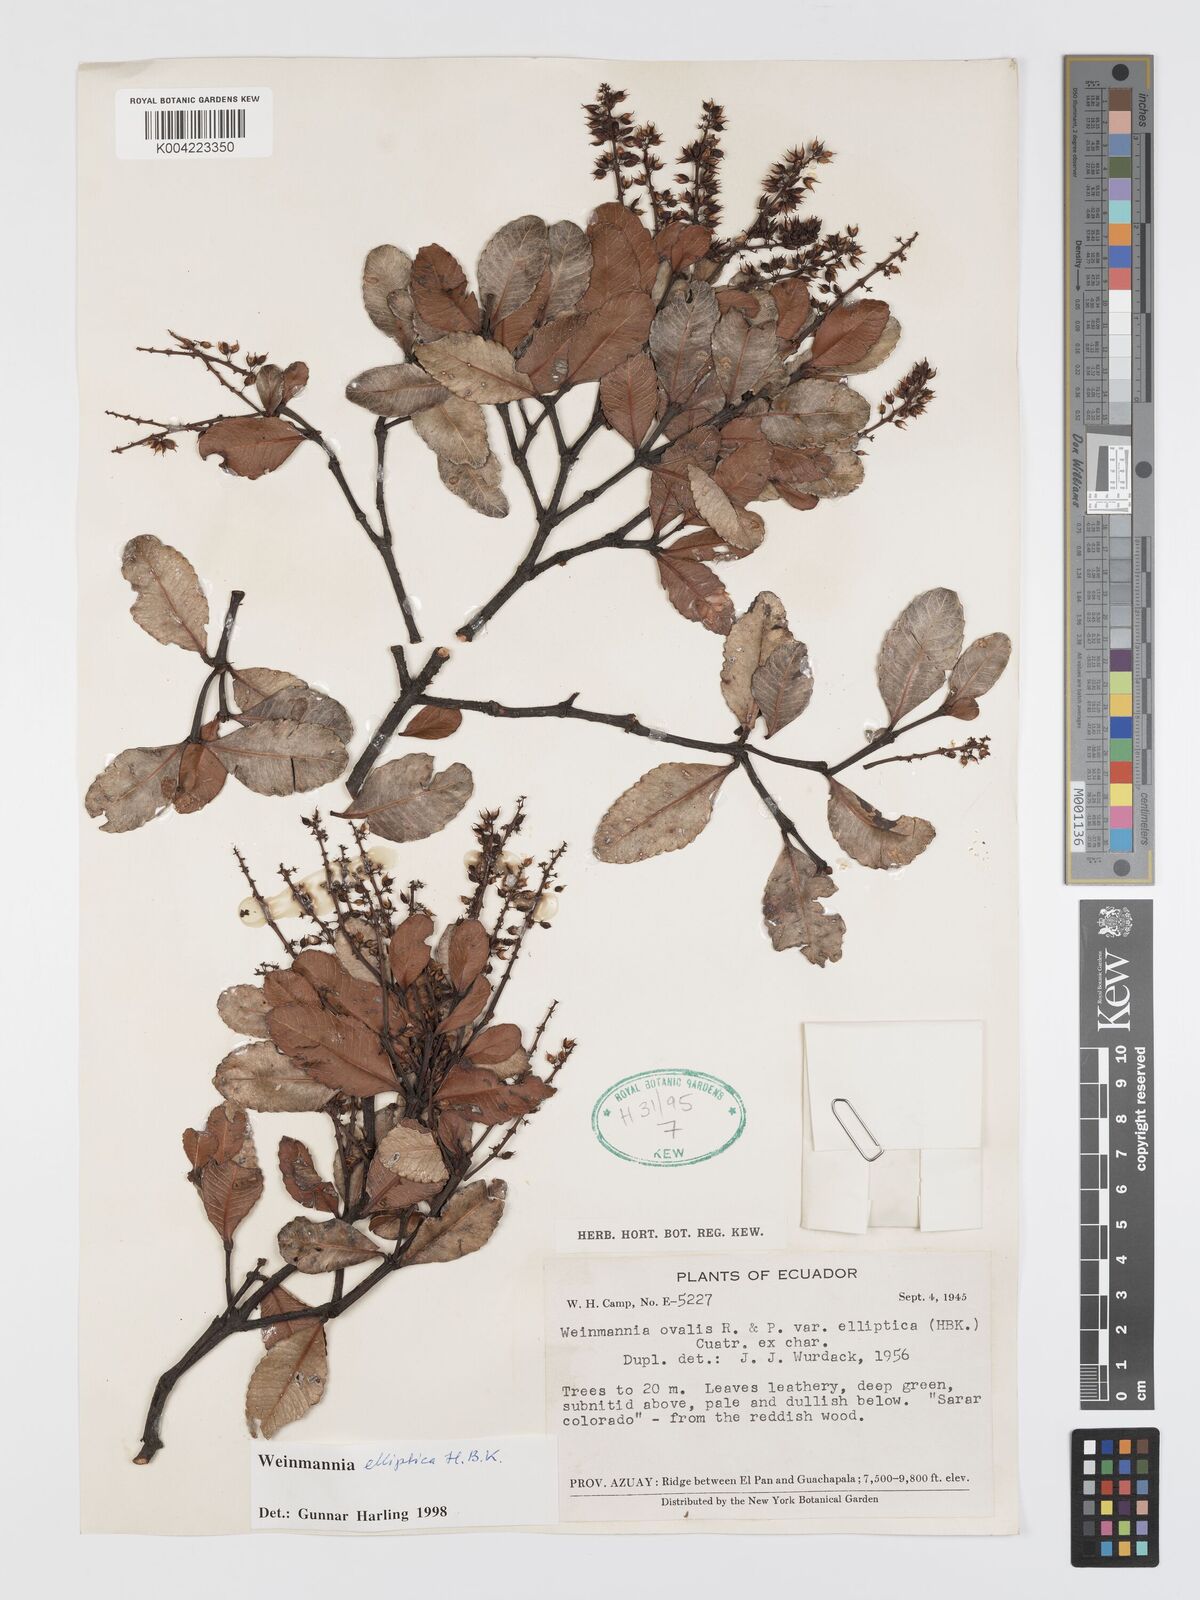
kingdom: Plantae
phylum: Tracheophyta
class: Magnoliopsida
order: Oxalidales
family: Cunoniaceae
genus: Weinmannia
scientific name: Weinmannia elliptica
